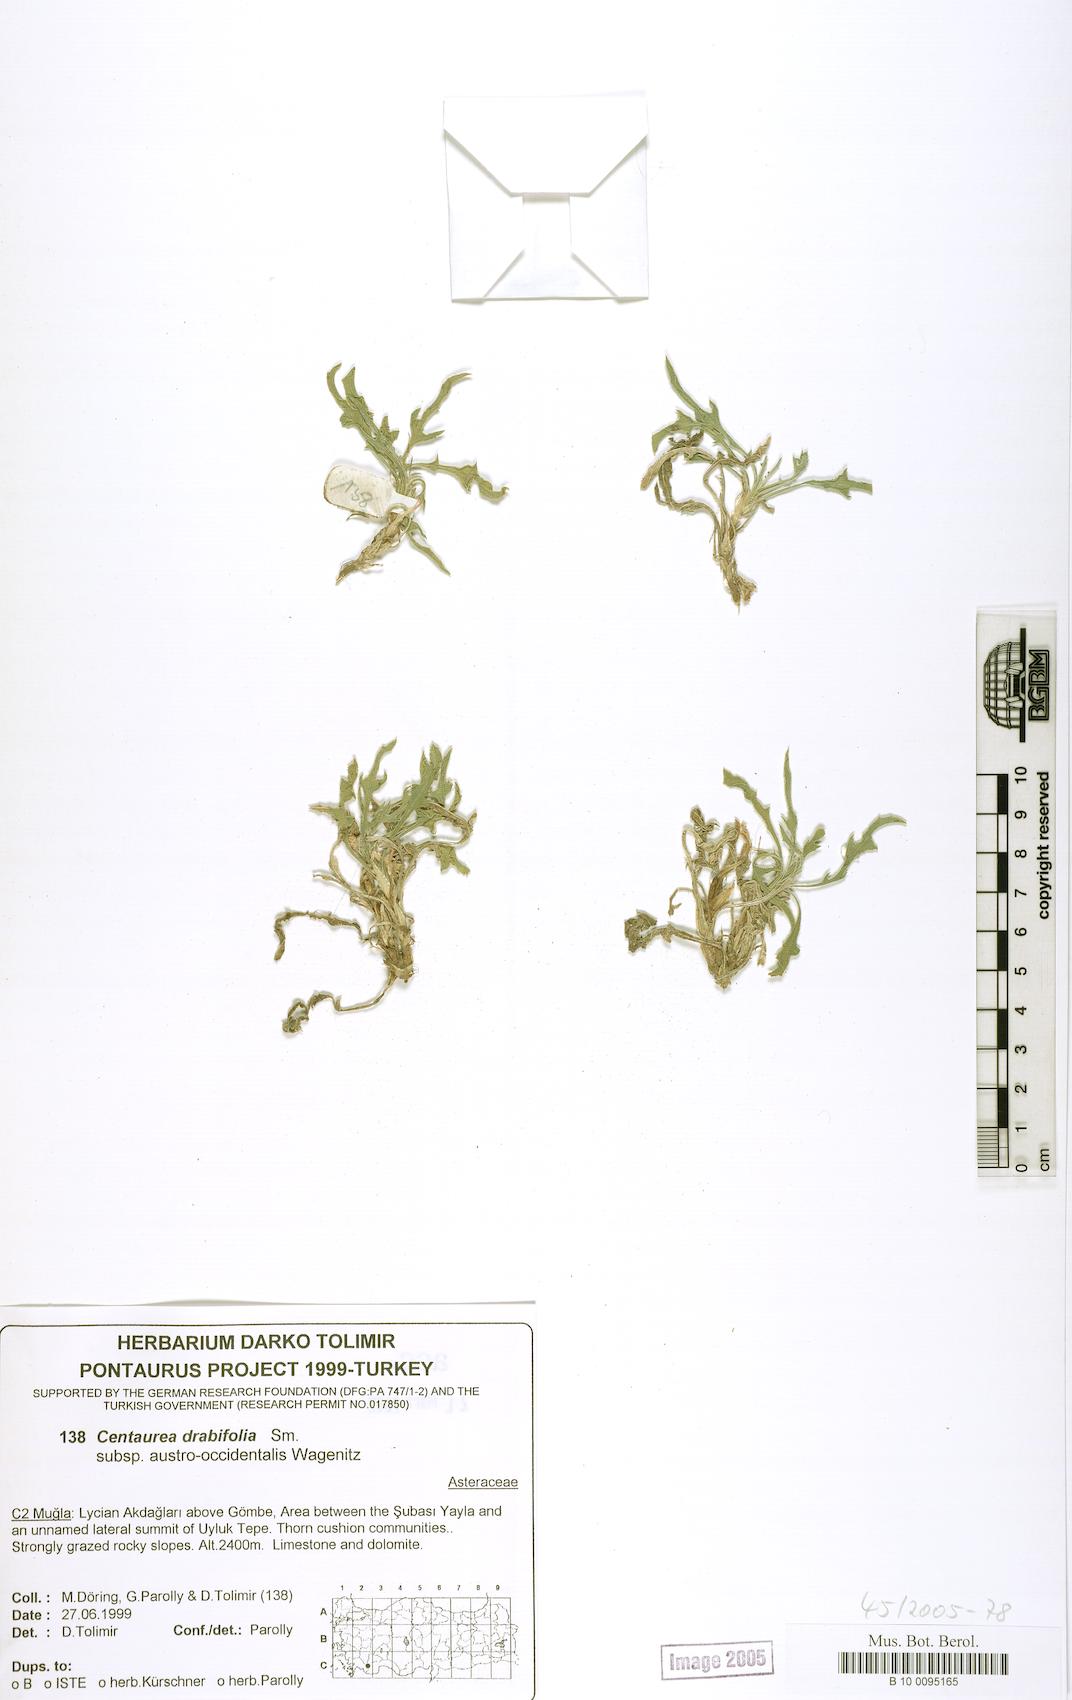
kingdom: Plantae
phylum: Tracheophyta
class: Magnoliopsida
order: Asterales
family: Asteraceae
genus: Centaurea
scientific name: Centaurea drabifolia
